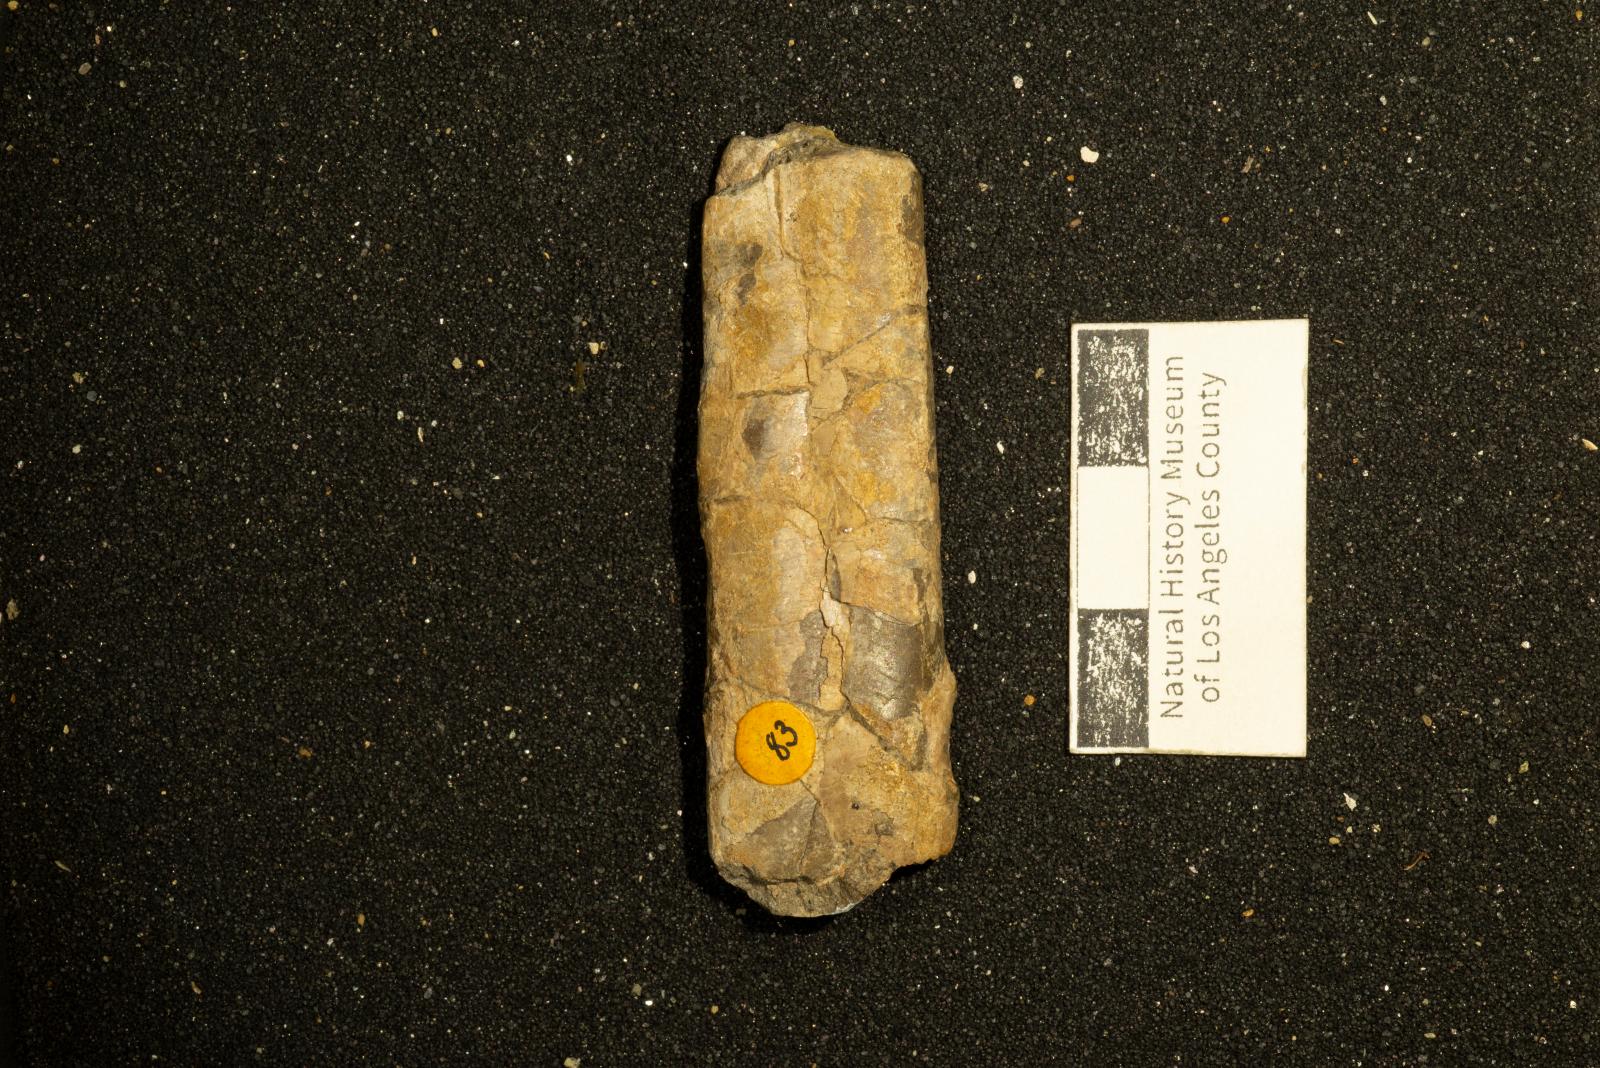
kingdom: Animalia
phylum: Mollusca
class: Cephalopoda
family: Baculitidae
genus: Baculites
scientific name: Baculites inornatus
